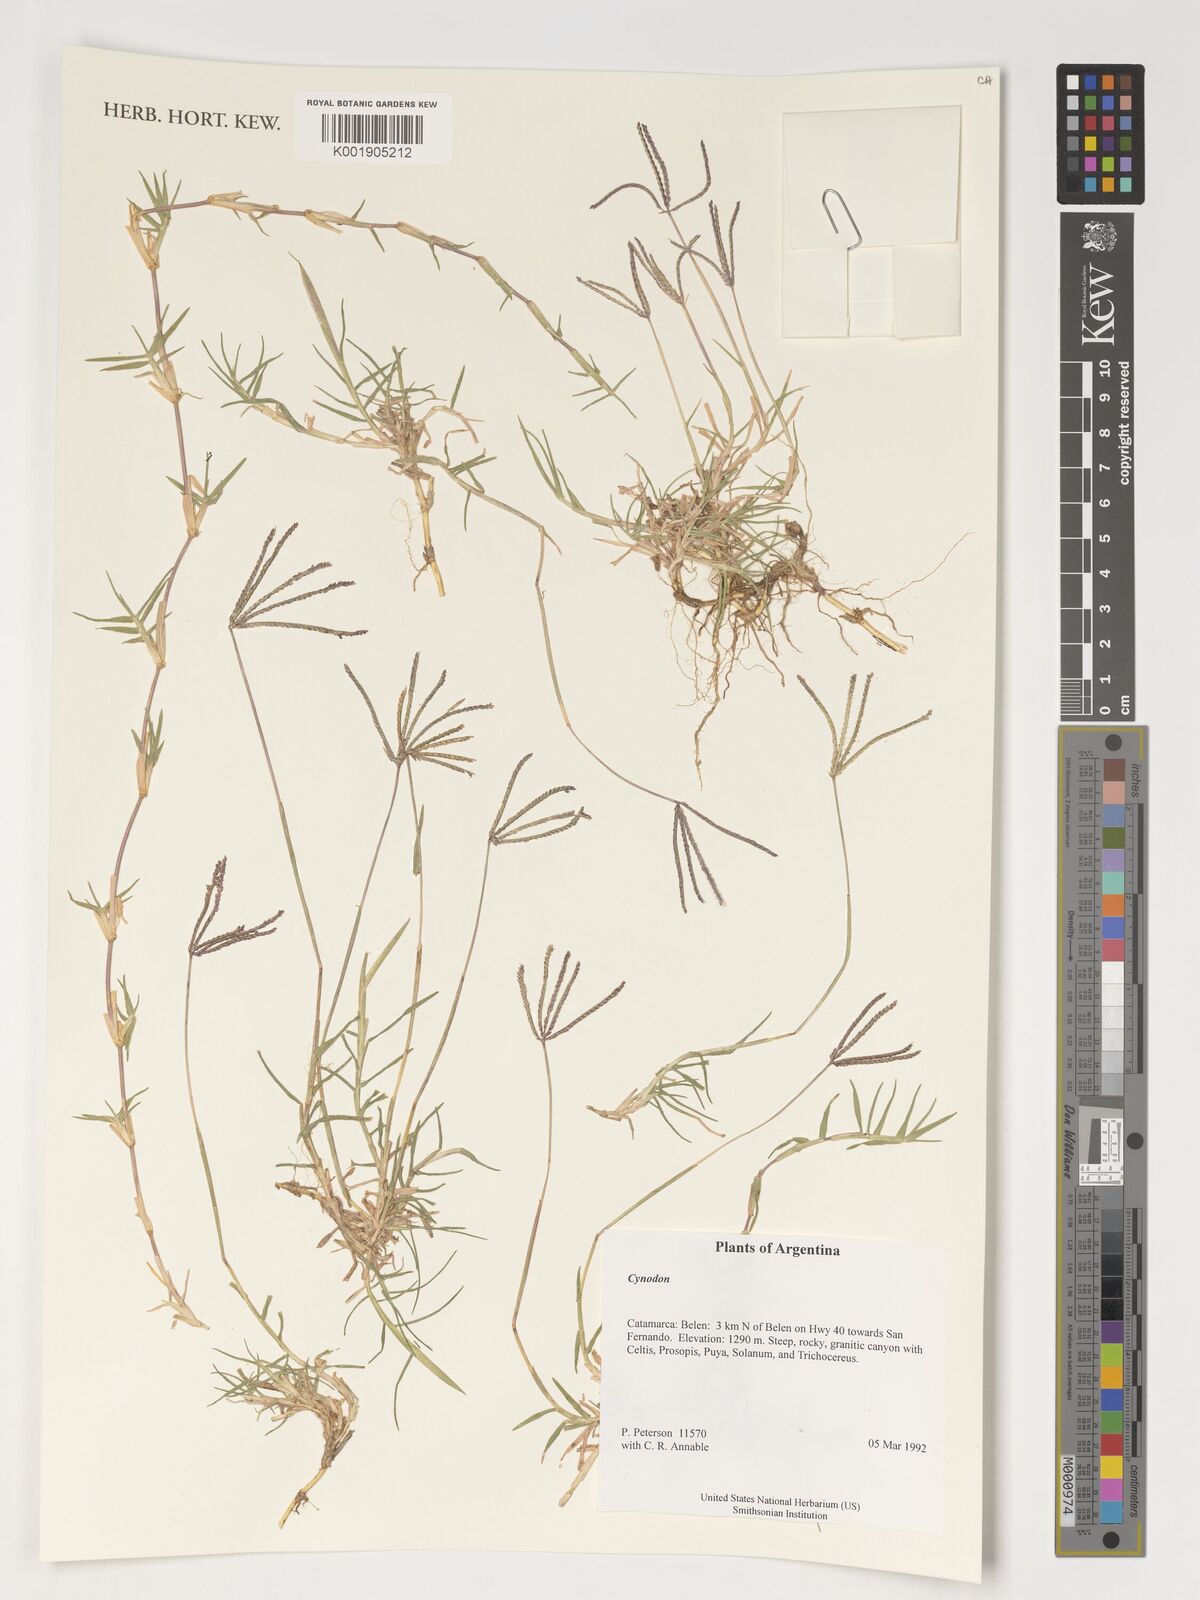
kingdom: Plantae
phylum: Tracheophyta
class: Liliopsida
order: Poales
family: Poaceae
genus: Cynodon
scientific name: Cynodon
